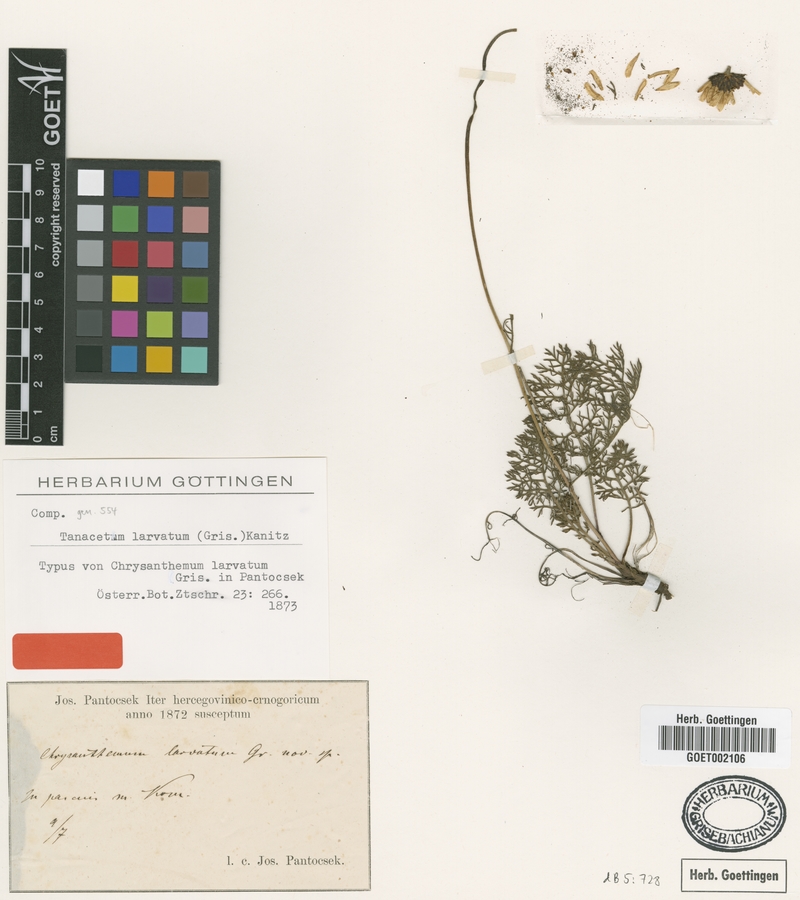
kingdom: Plantae
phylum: Tracheophyta
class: Magnoliopsida
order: Asterales
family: Asteraceae
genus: Leucanthemum
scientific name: Leucanthemum coronopifolium
